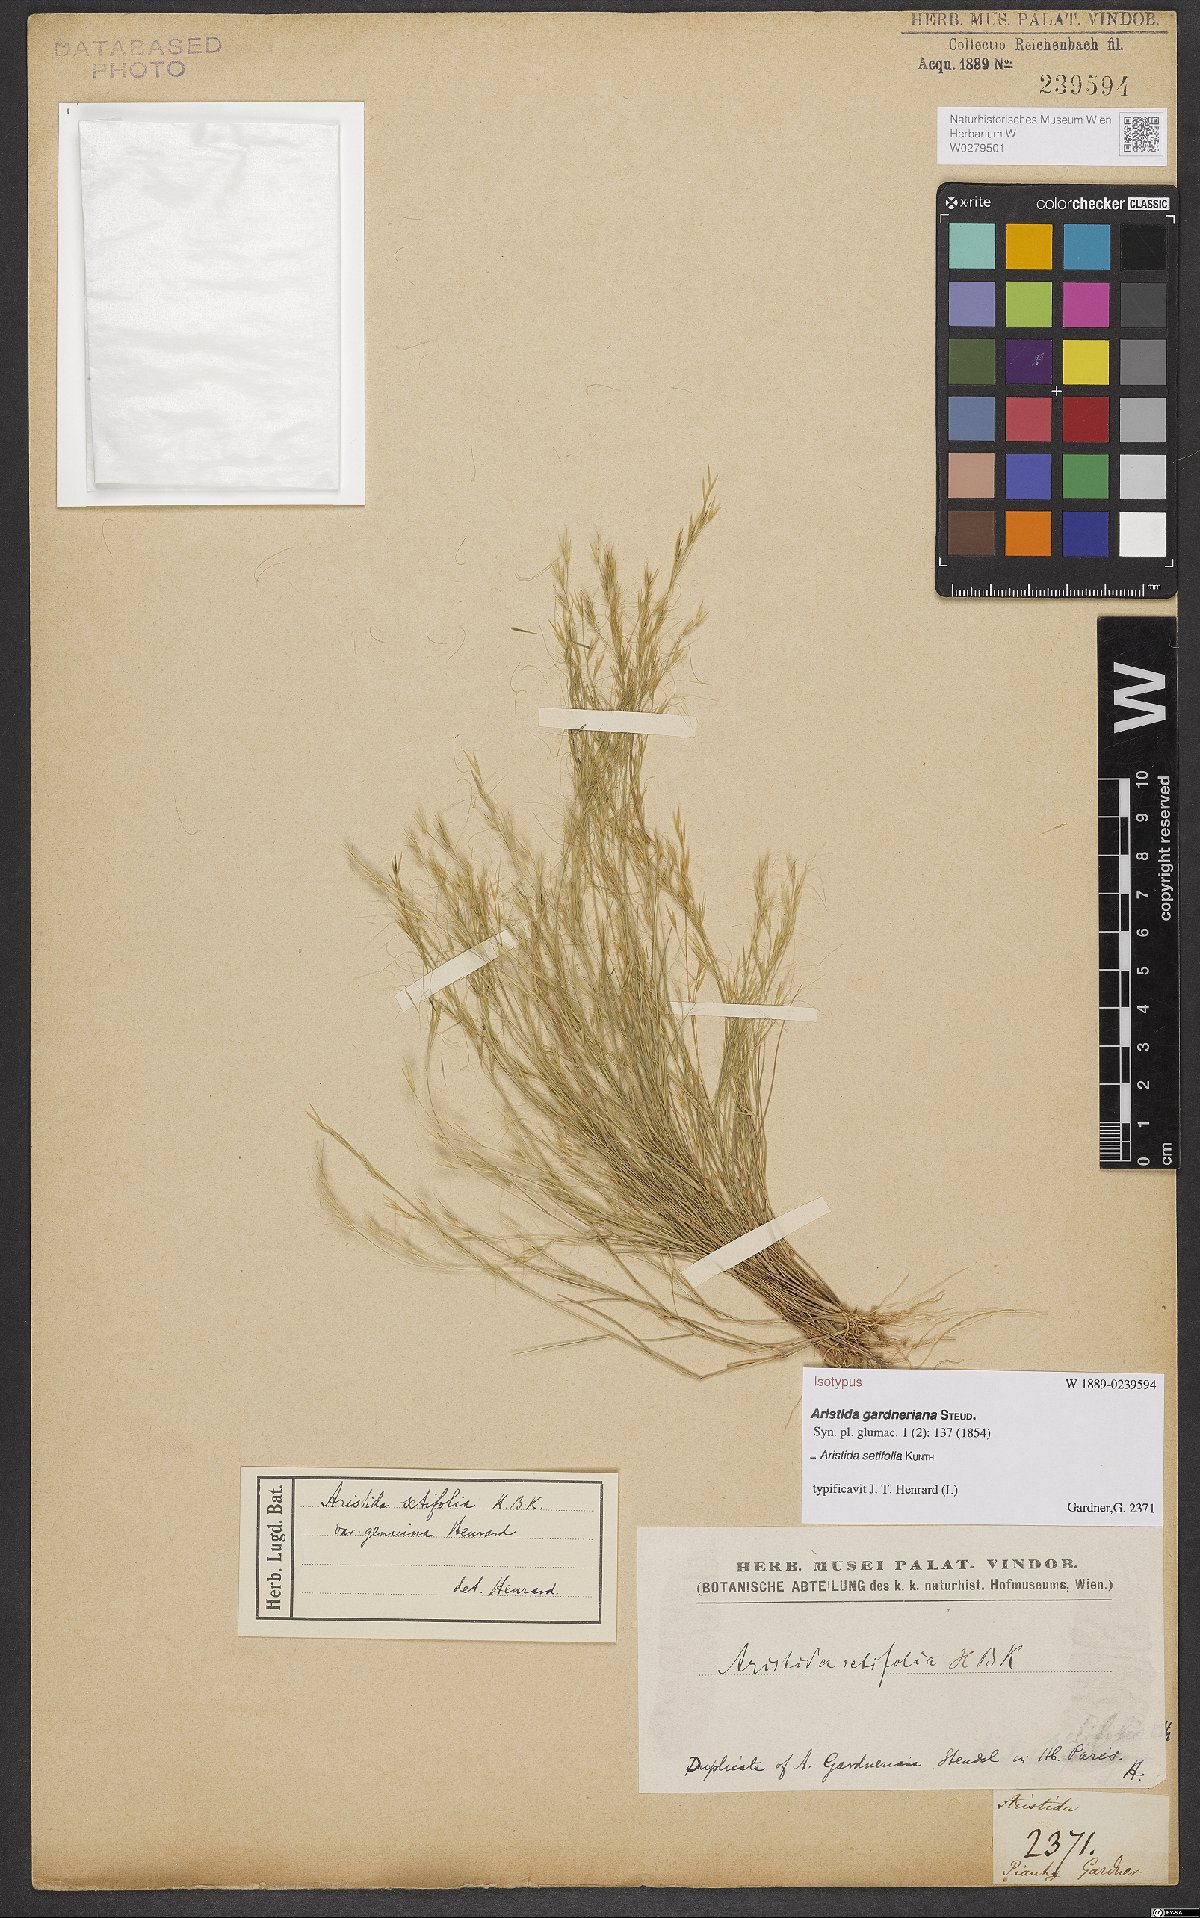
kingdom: Plantae
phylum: Tracheophyta
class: Liliopsida
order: Poales
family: Poaceae
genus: Aristida
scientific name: Aristida setifolia
